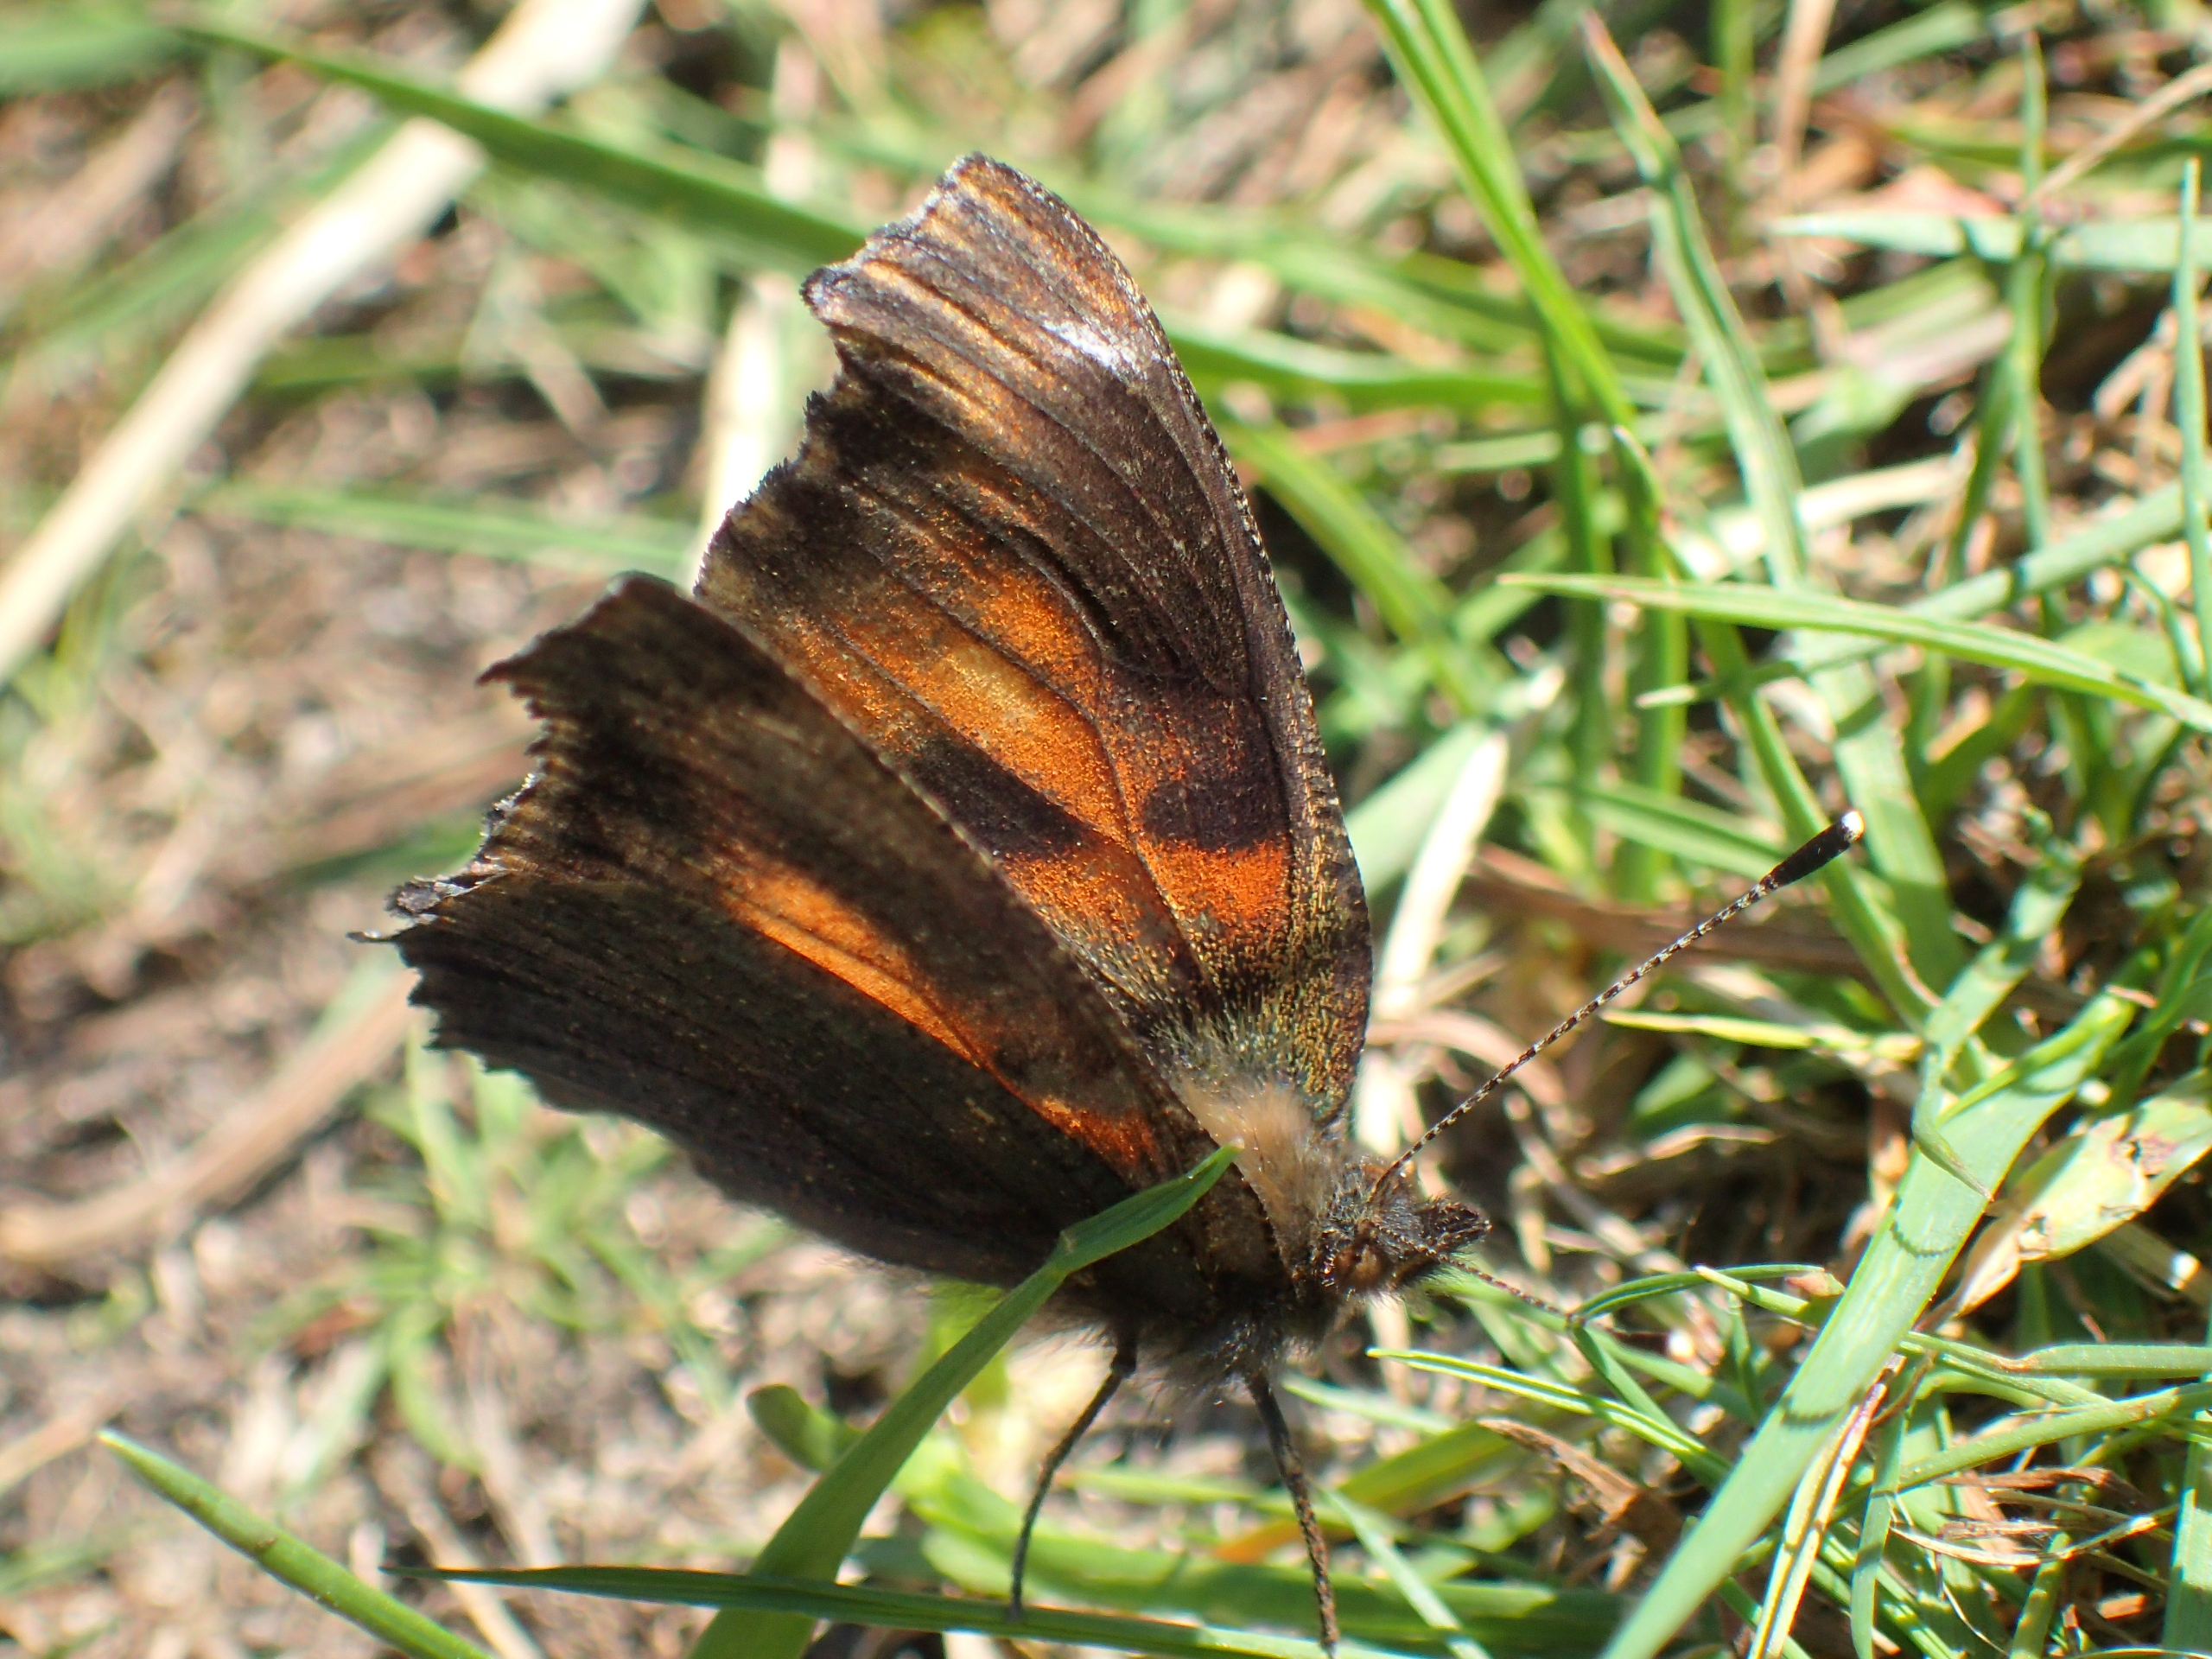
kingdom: Animalia
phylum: Arthropoda
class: Insecta
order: Lepidoptera
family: Nymphalidae
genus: Aglais
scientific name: Aglais urticae
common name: Nældens takvinge
